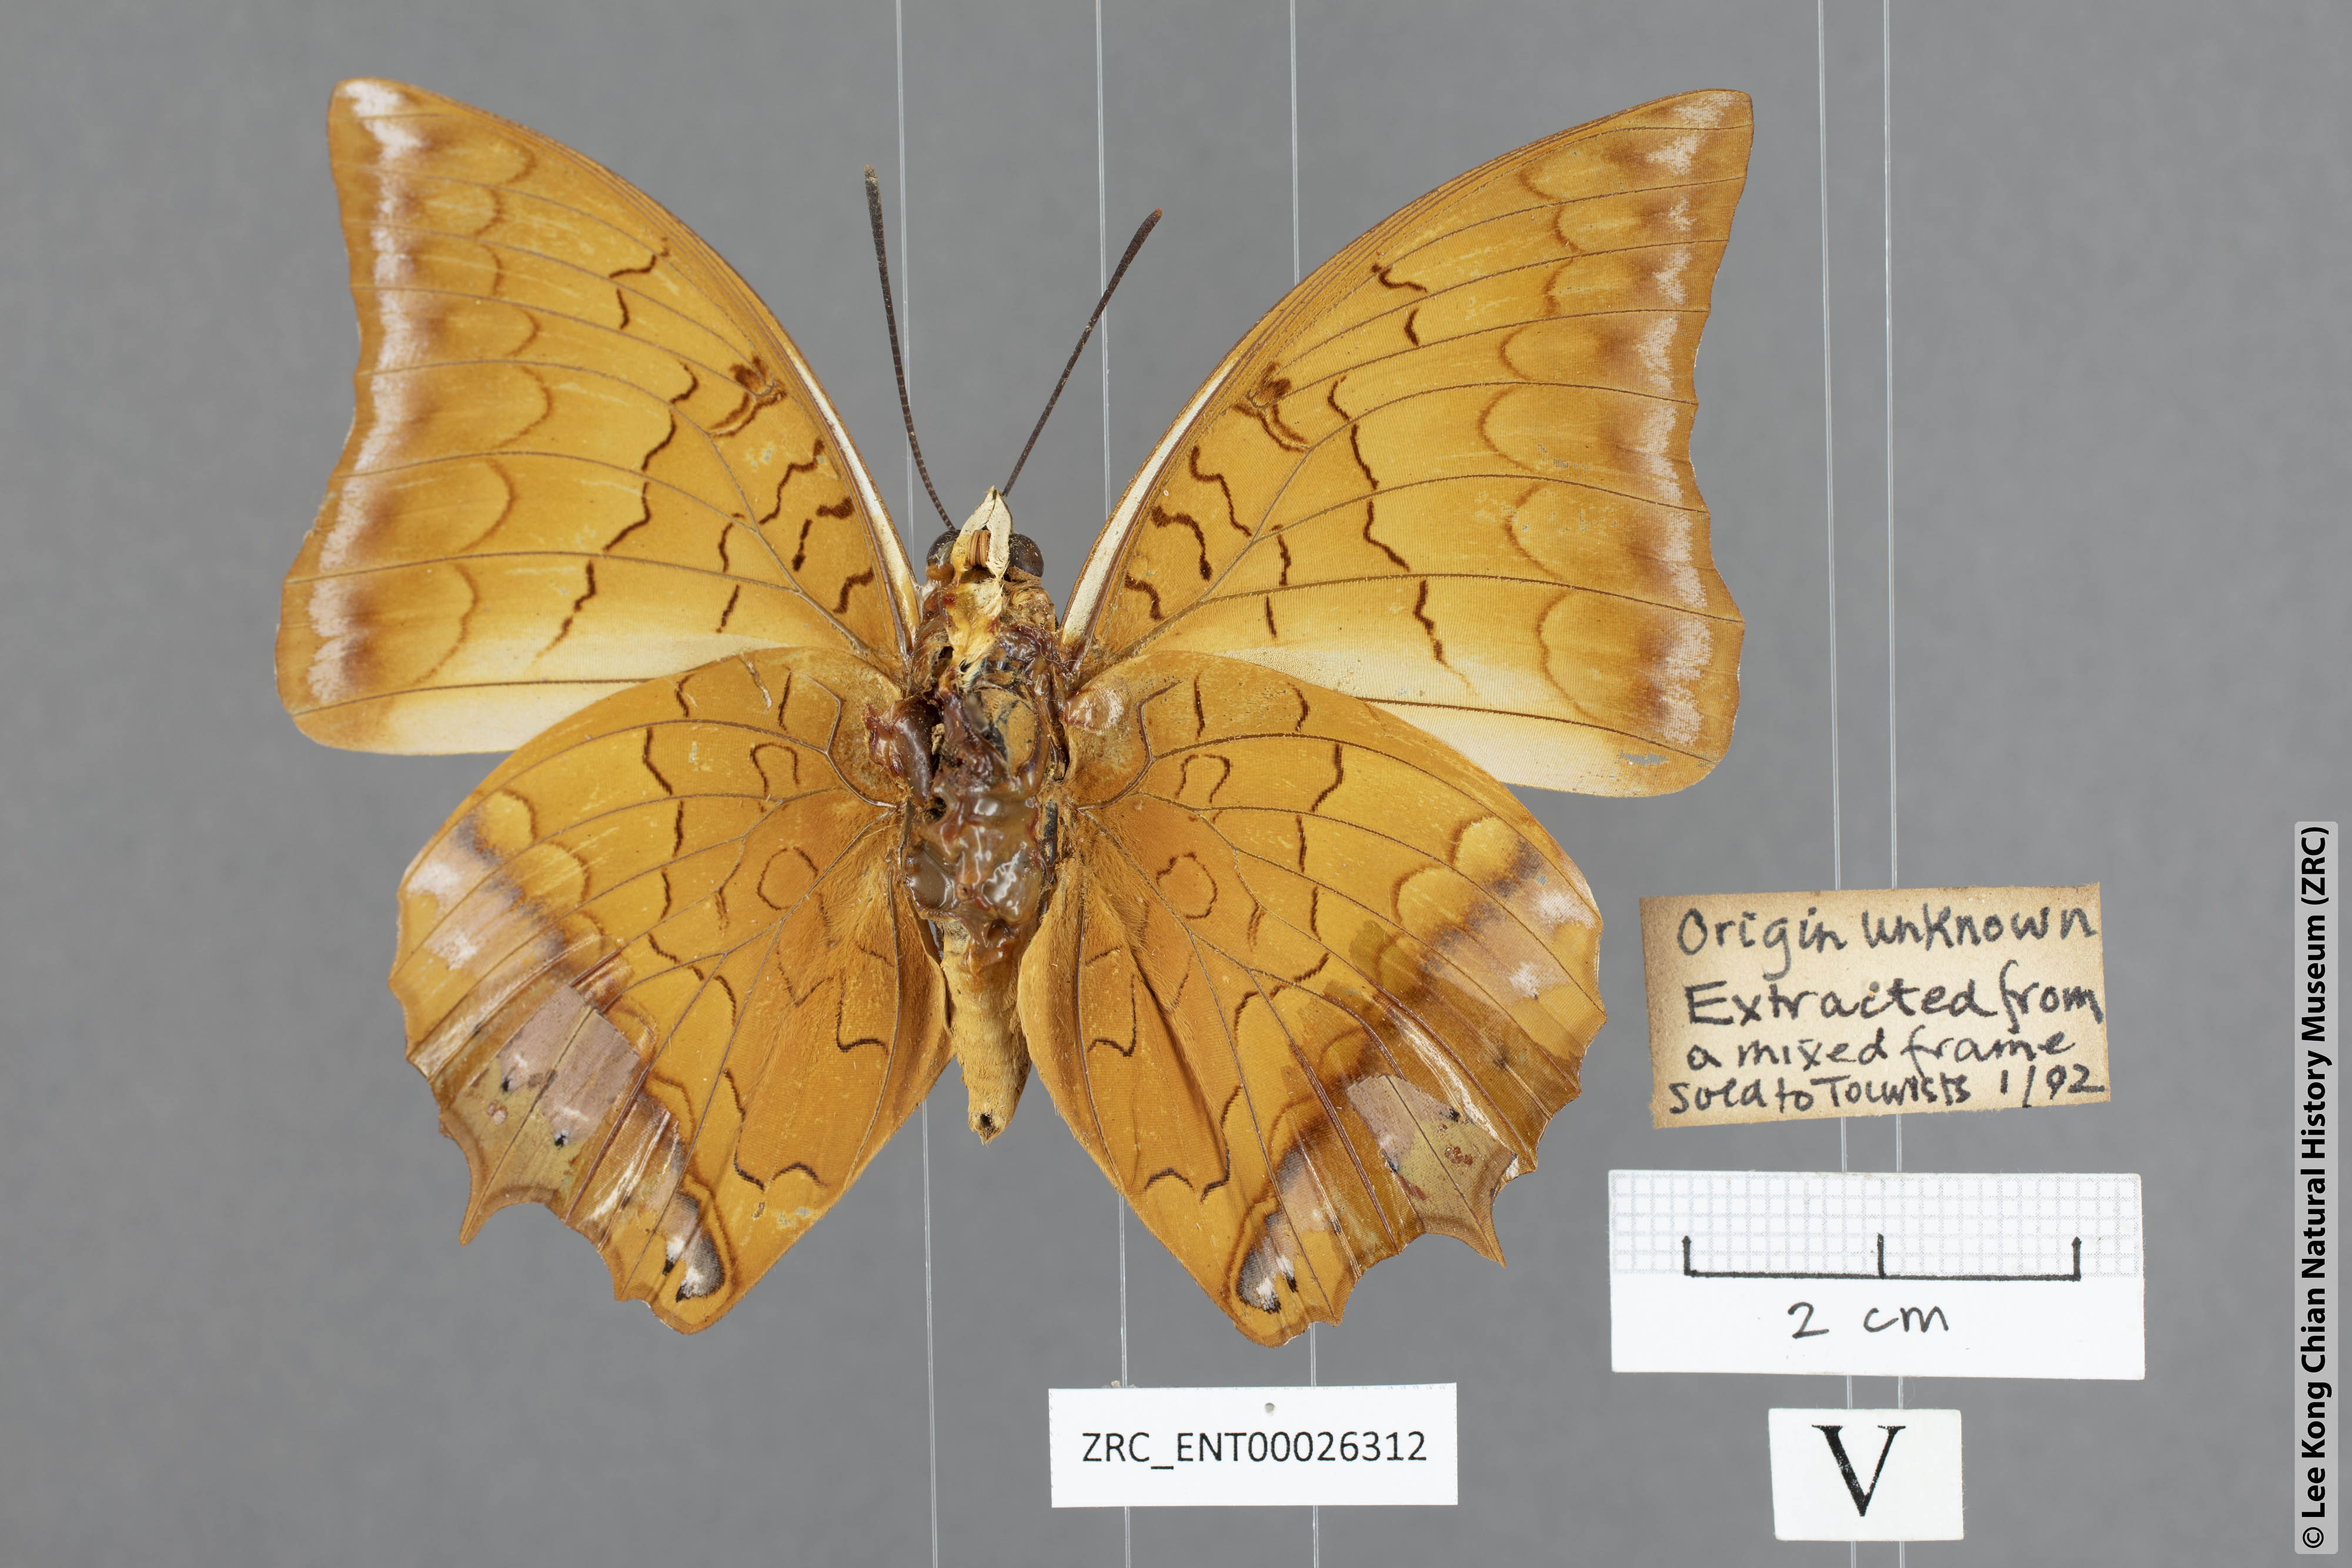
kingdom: Animalia
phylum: Arthropoda
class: Insecta
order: Lepidoptera
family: Nymphalidae
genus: Charaxes
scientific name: Charaxes distanti
